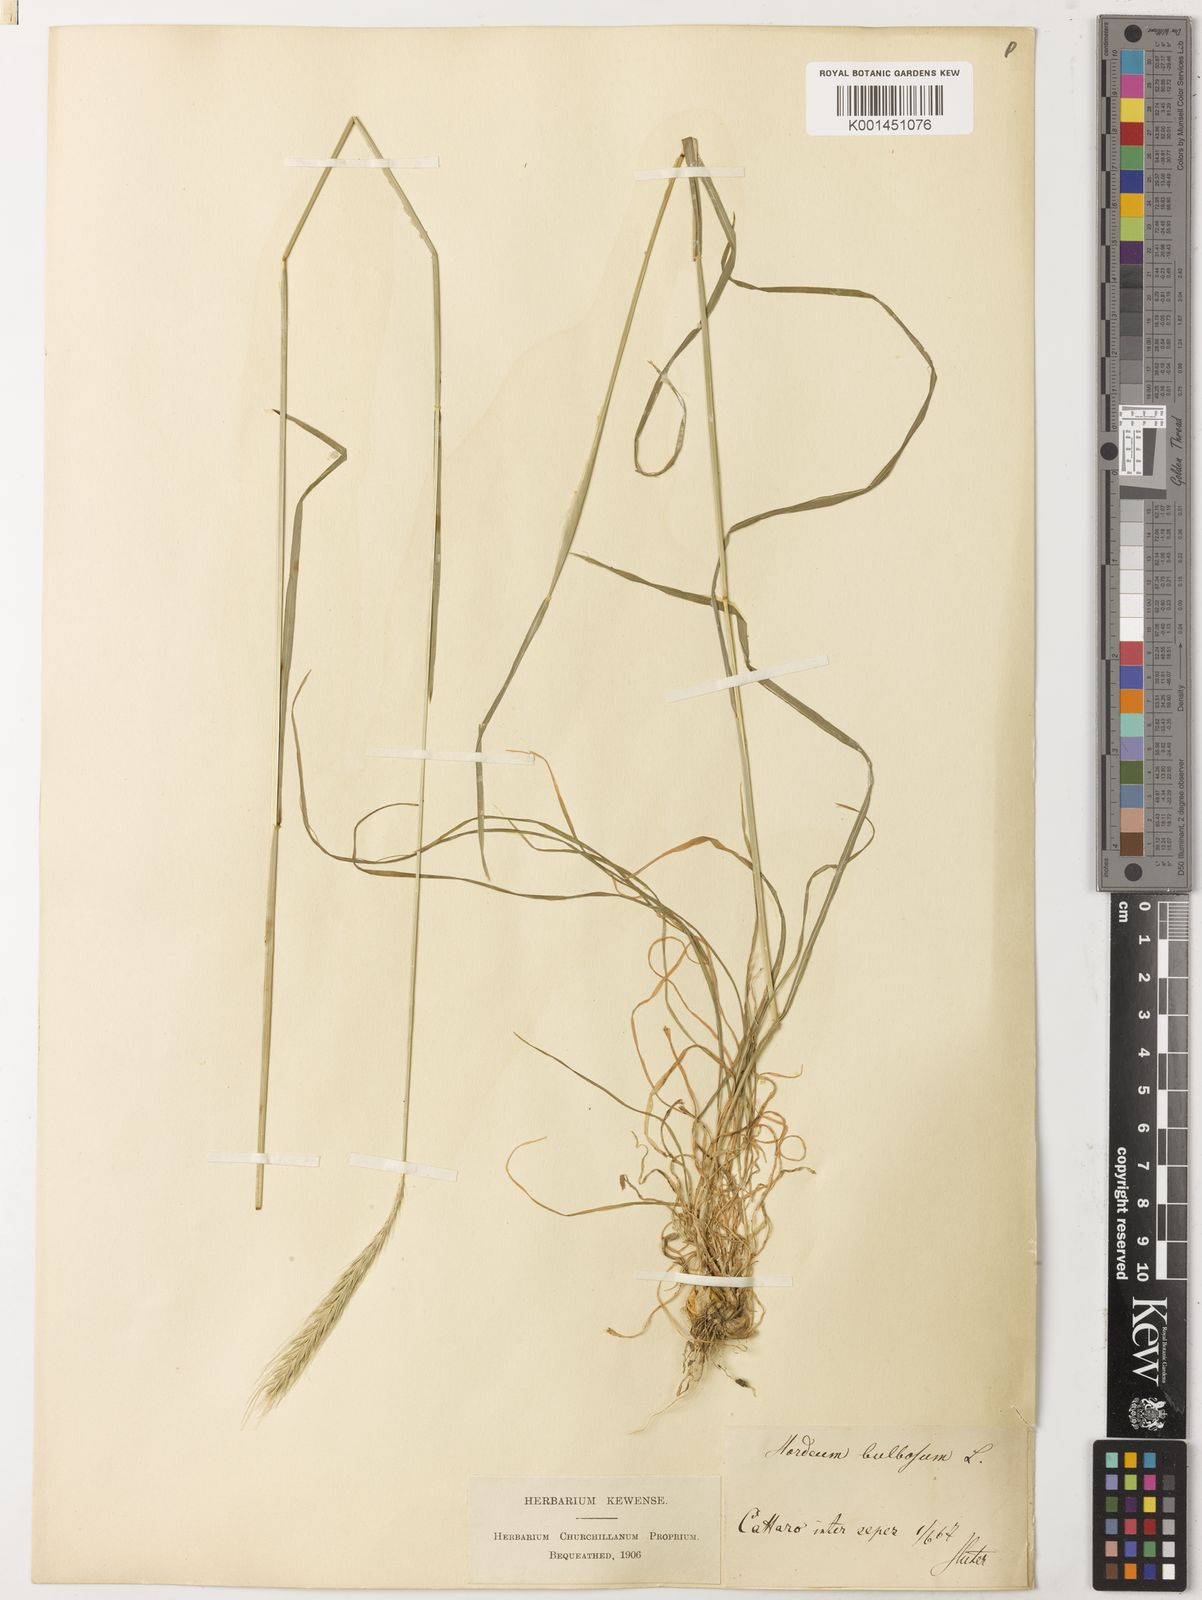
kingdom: Plantae
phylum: Tracheophyta
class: Liliopsida
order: Poales
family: Poaceae
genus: Hordeum
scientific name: Hordeum bulbosum
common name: Bulbous barley
